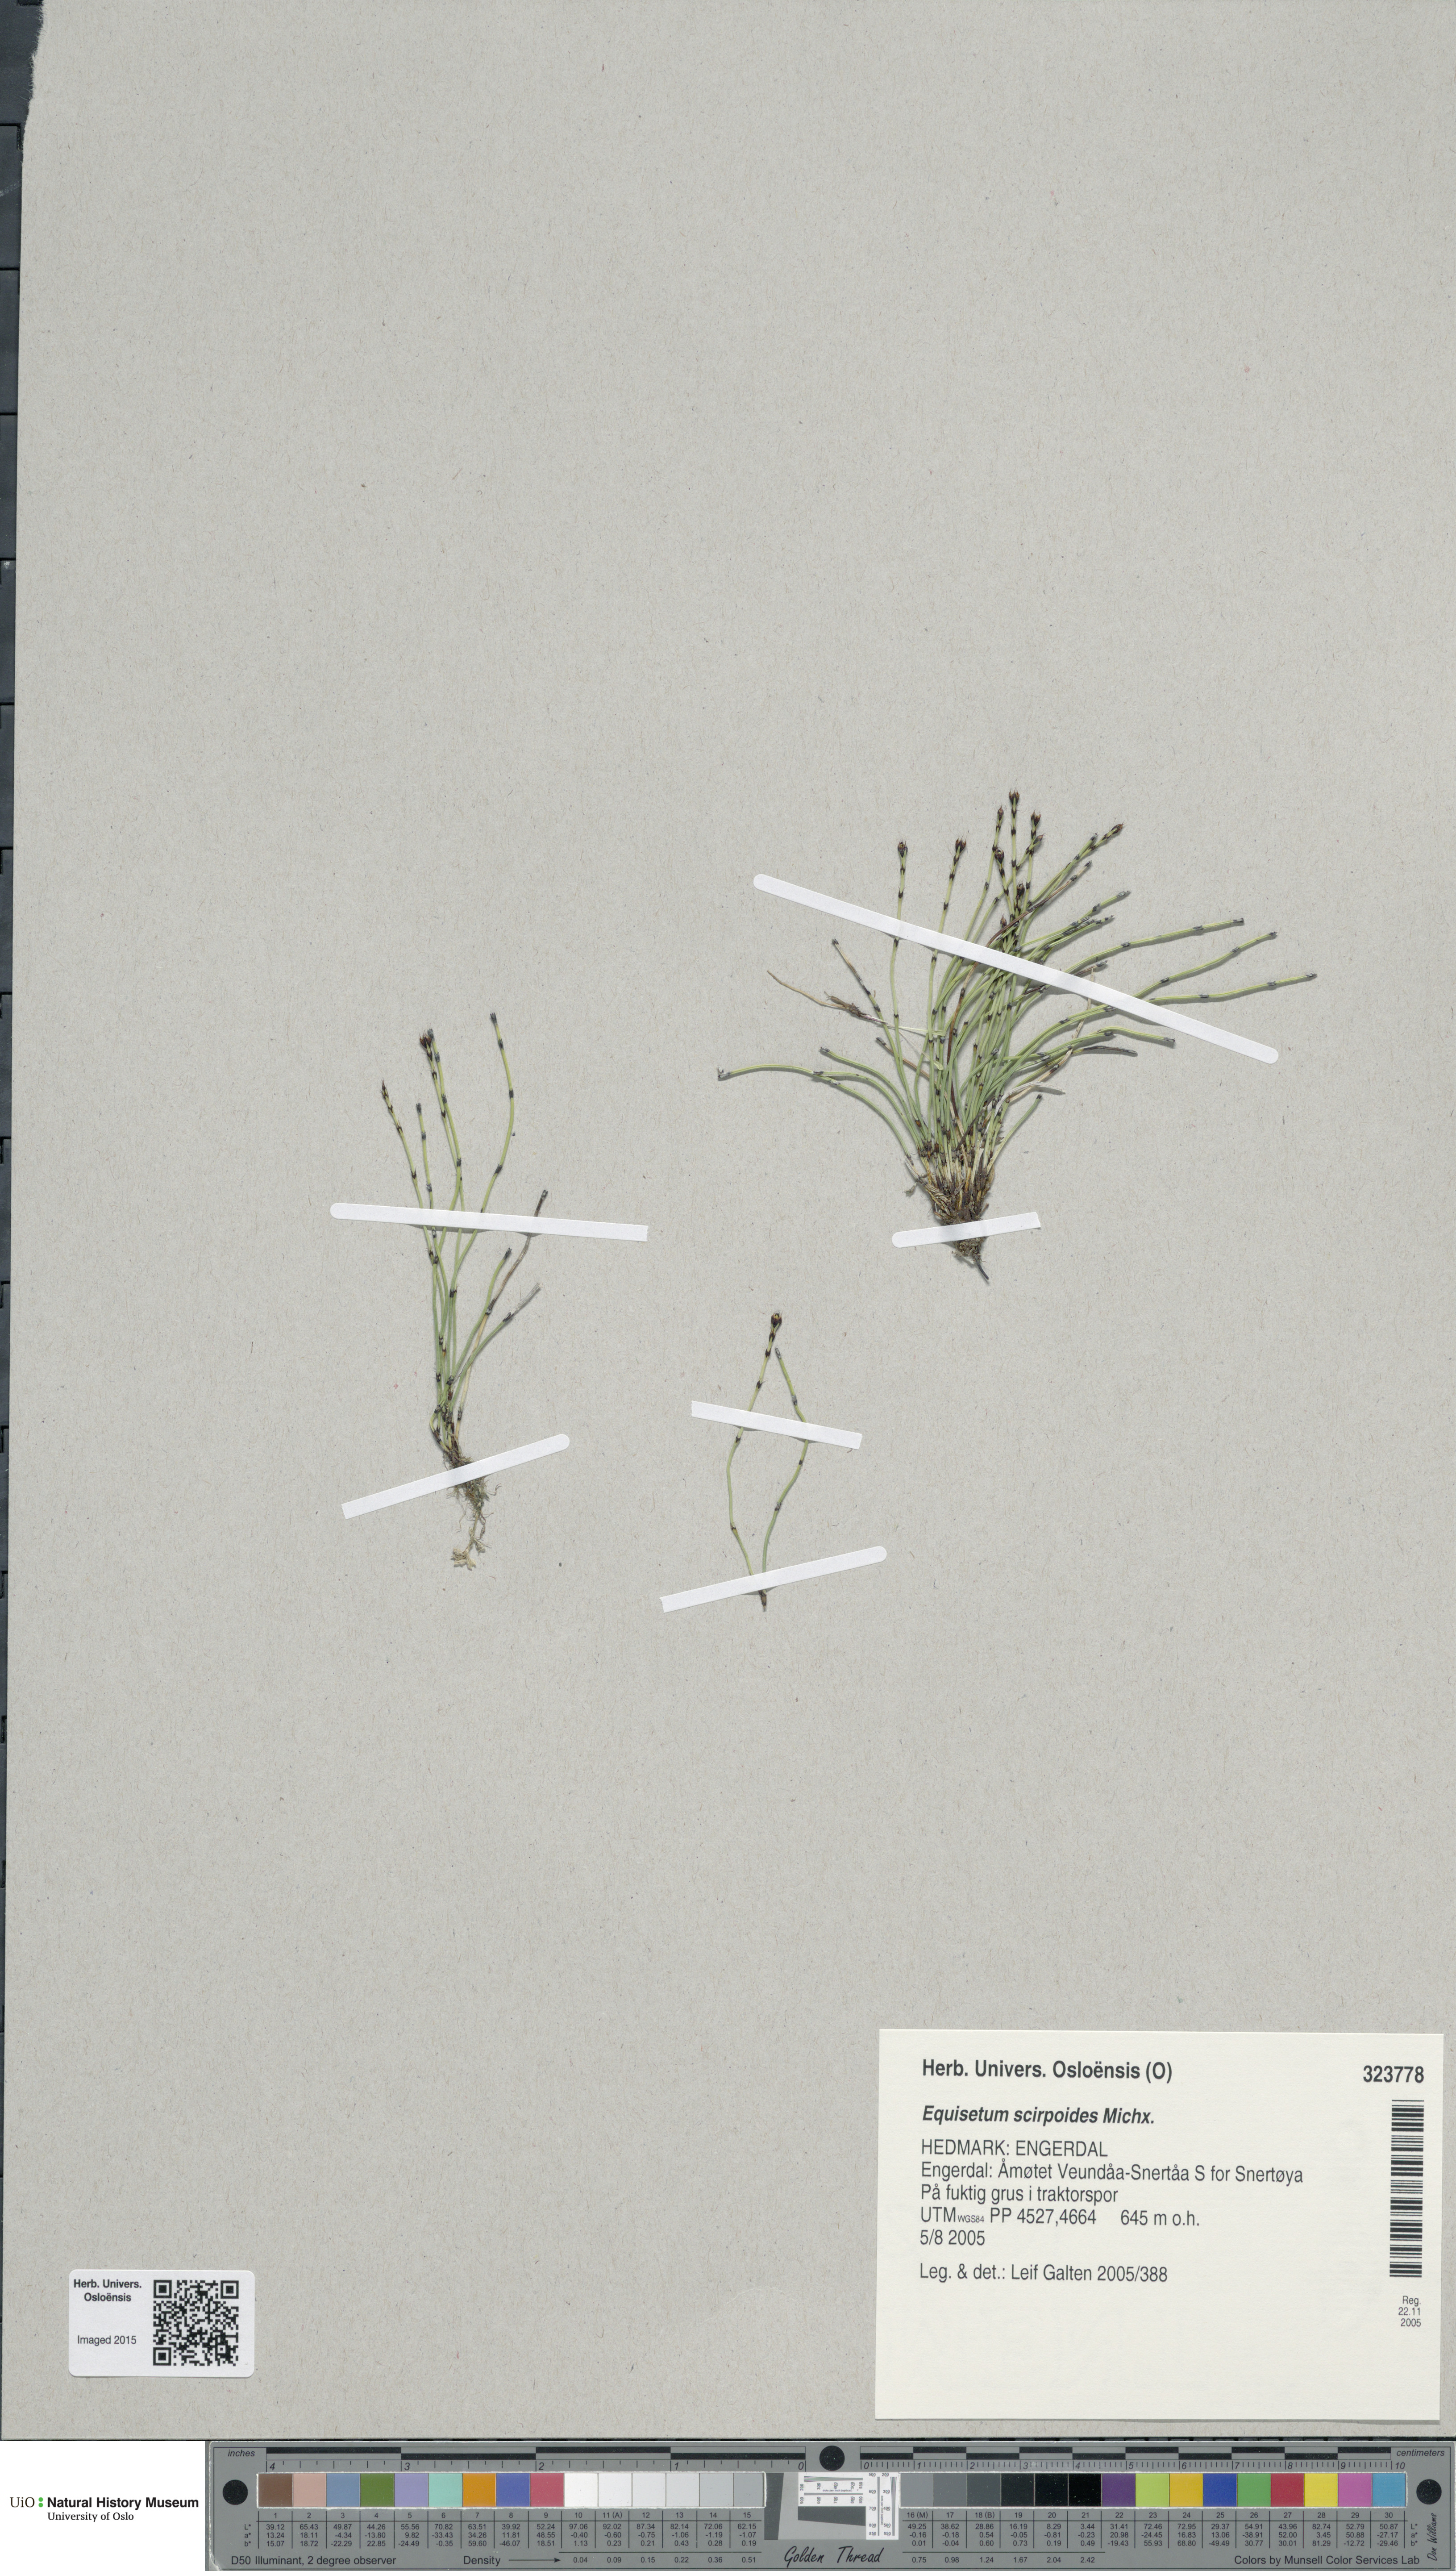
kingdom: Plantae
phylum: Tracheophyta
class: Polypodiopsida
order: Equisetales
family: Equisetaceae
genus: Equisetum
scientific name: Equisetum scirpoides
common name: Delicate horsetail
